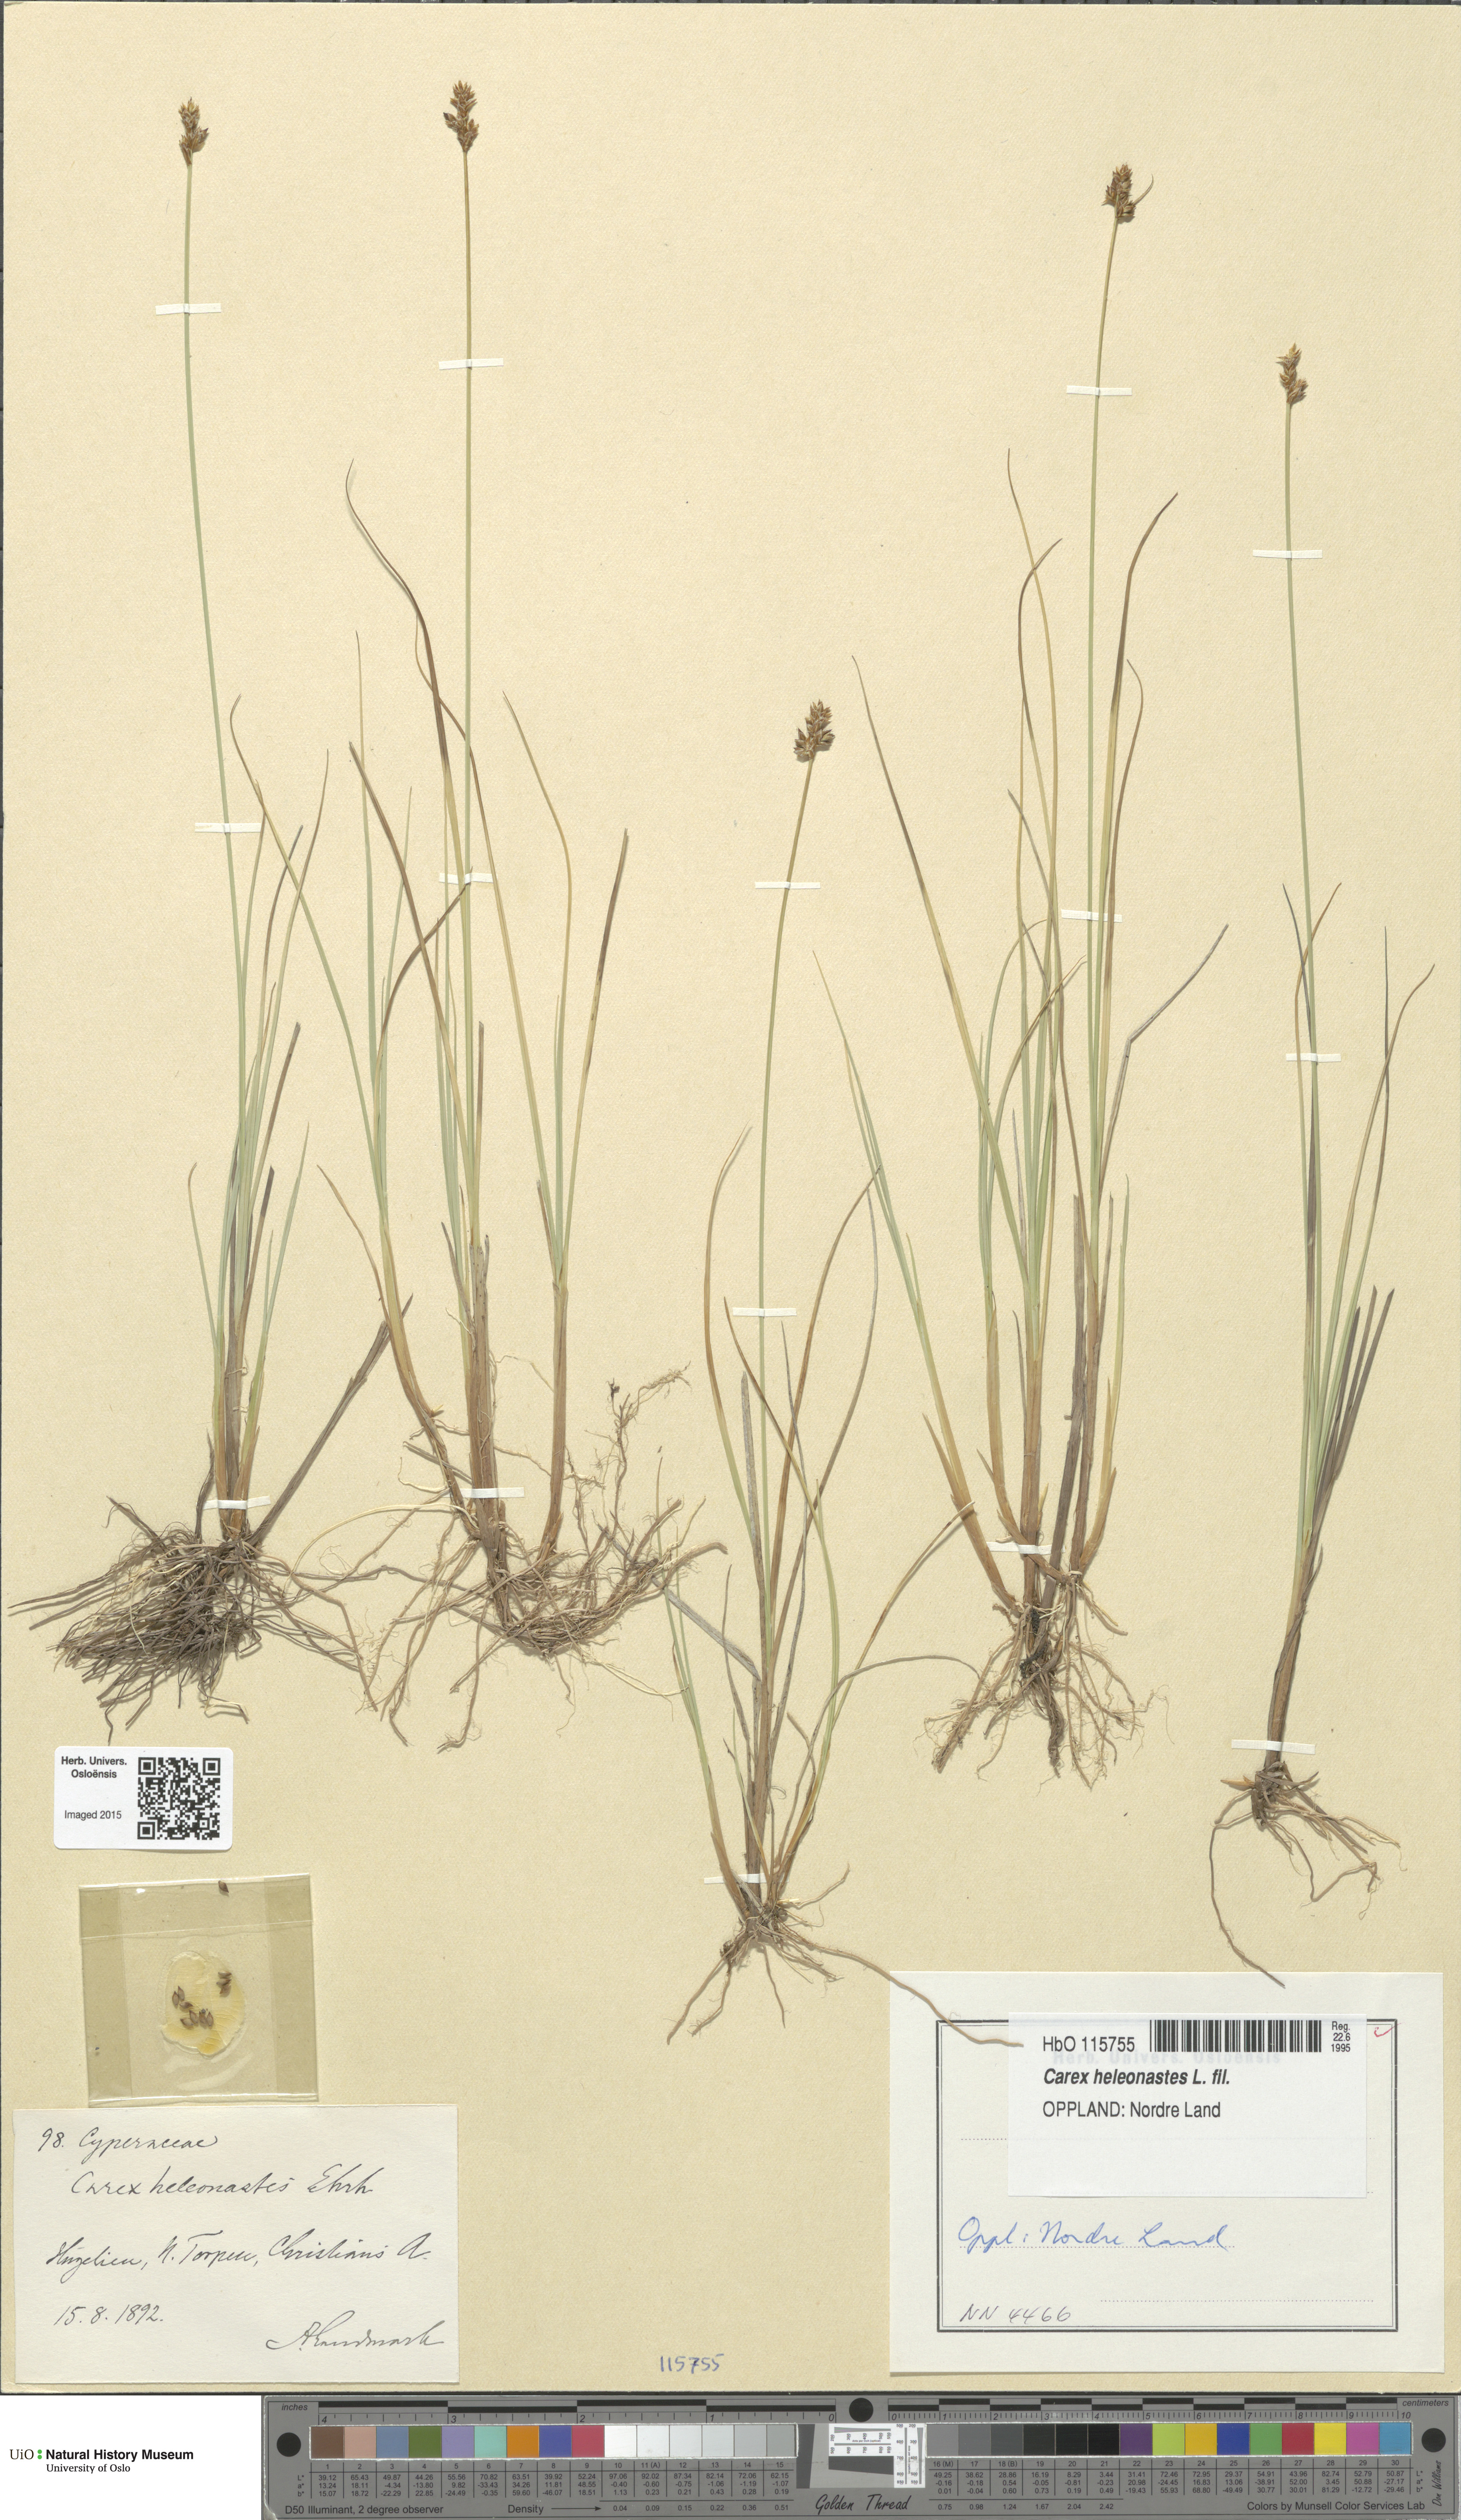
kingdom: Plantae
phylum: Tracheophyta
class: Liliopsida
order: Poales
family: Cyperaceae
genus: Carex
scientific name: Carex heleonastes
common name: Hudson bay sedge
